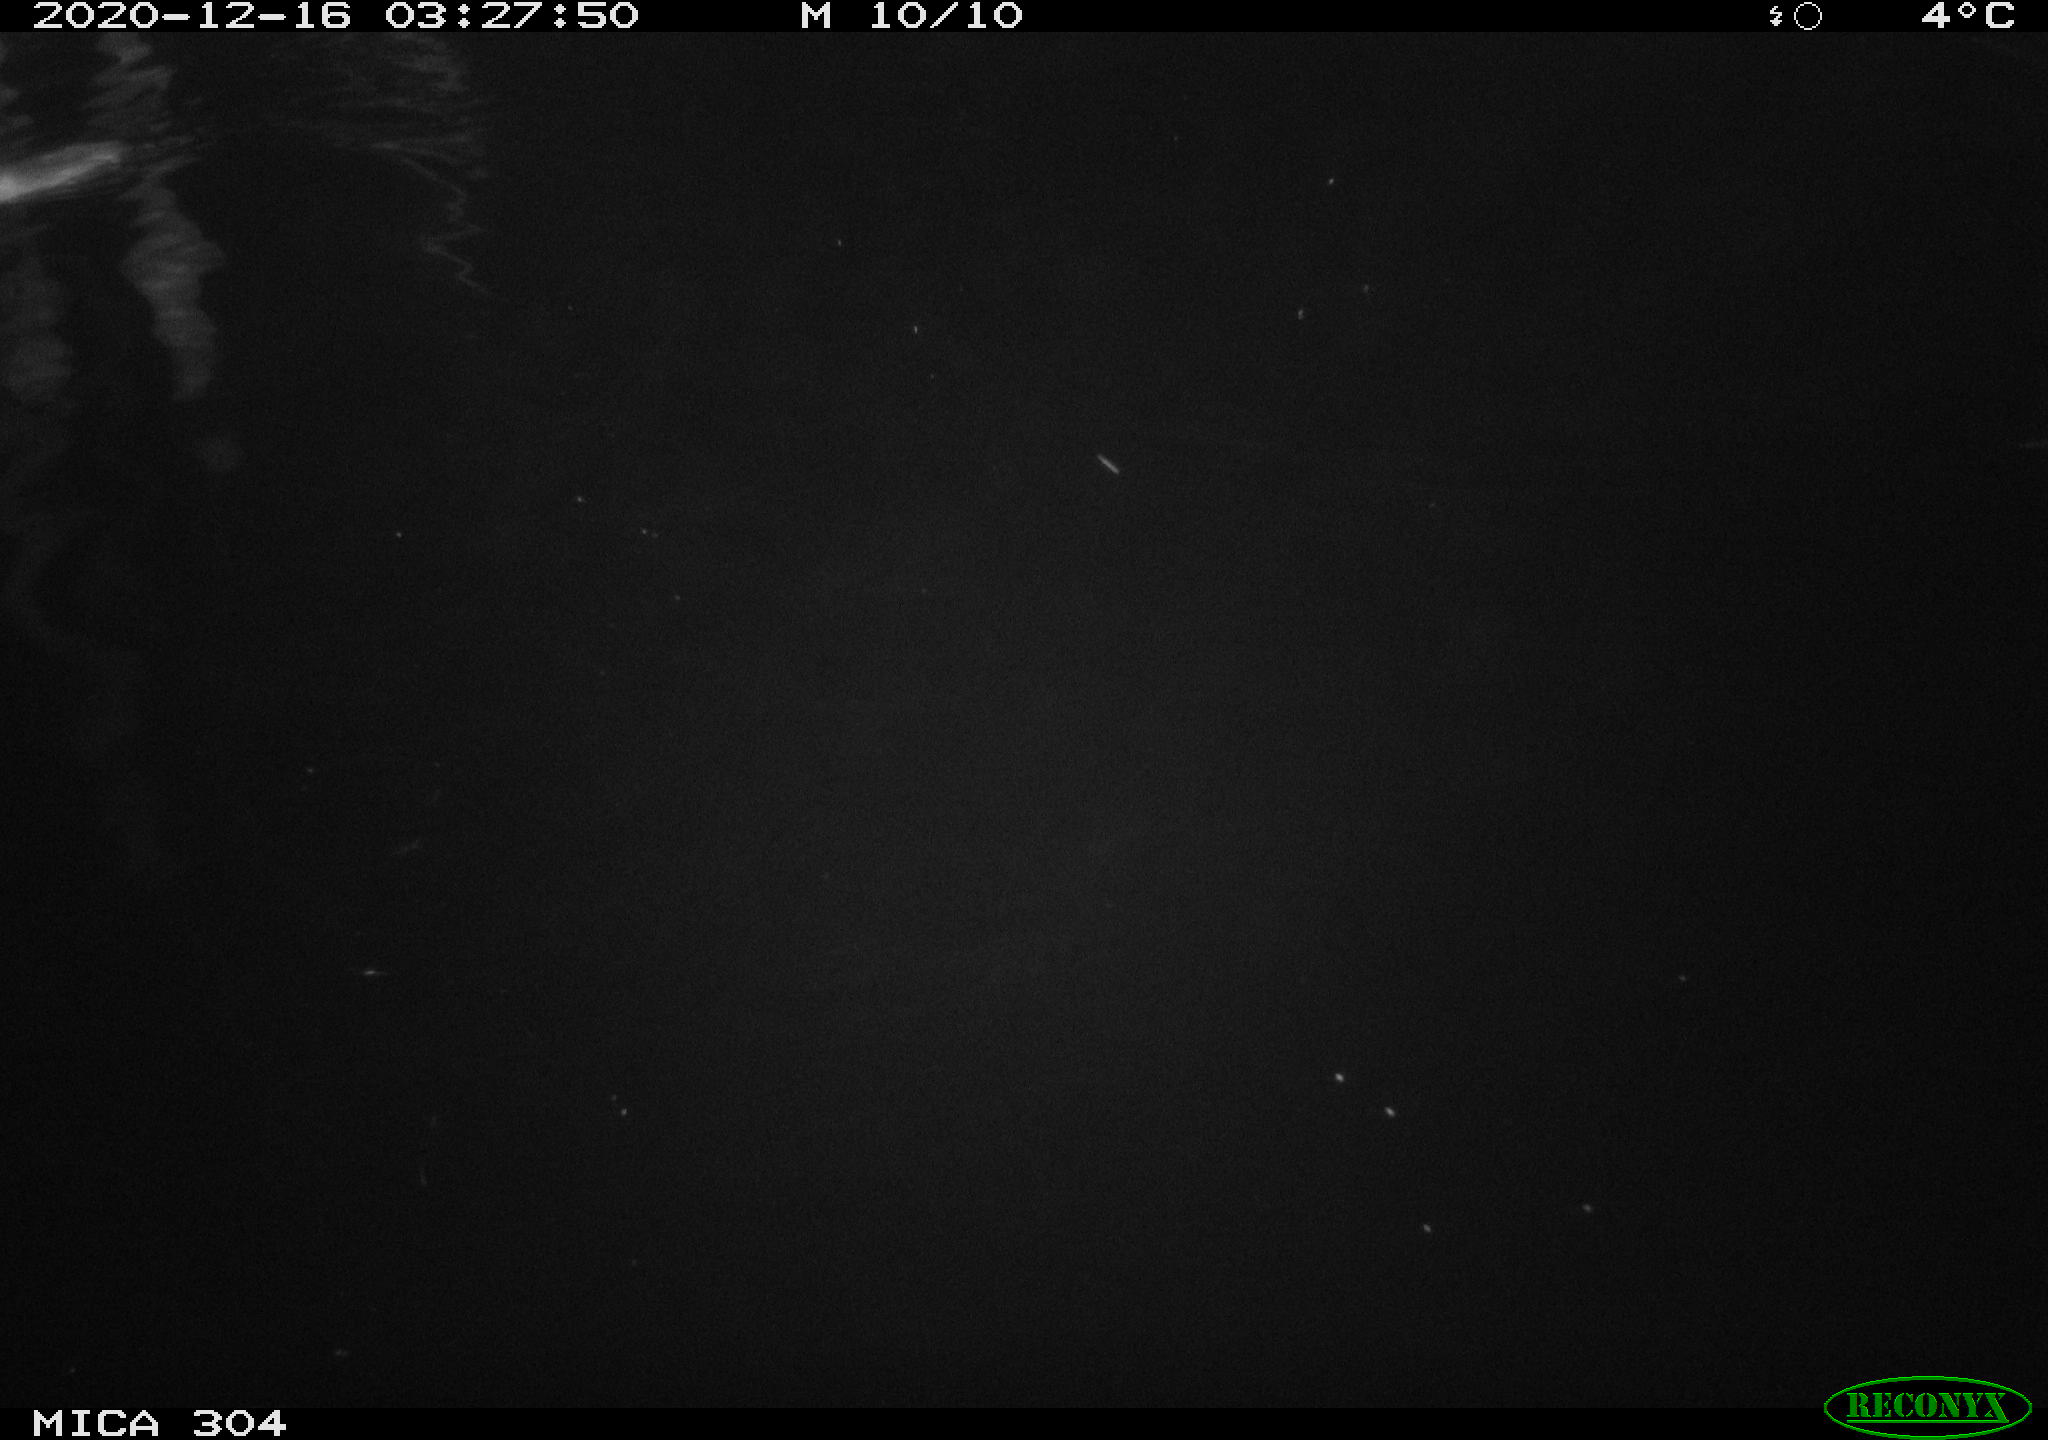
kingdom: Animalia
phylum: Chordata
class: Mammalia
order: Rodentia
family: Muridae
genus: Rattus
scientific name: Rattus norvegicus
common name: Brown rat
